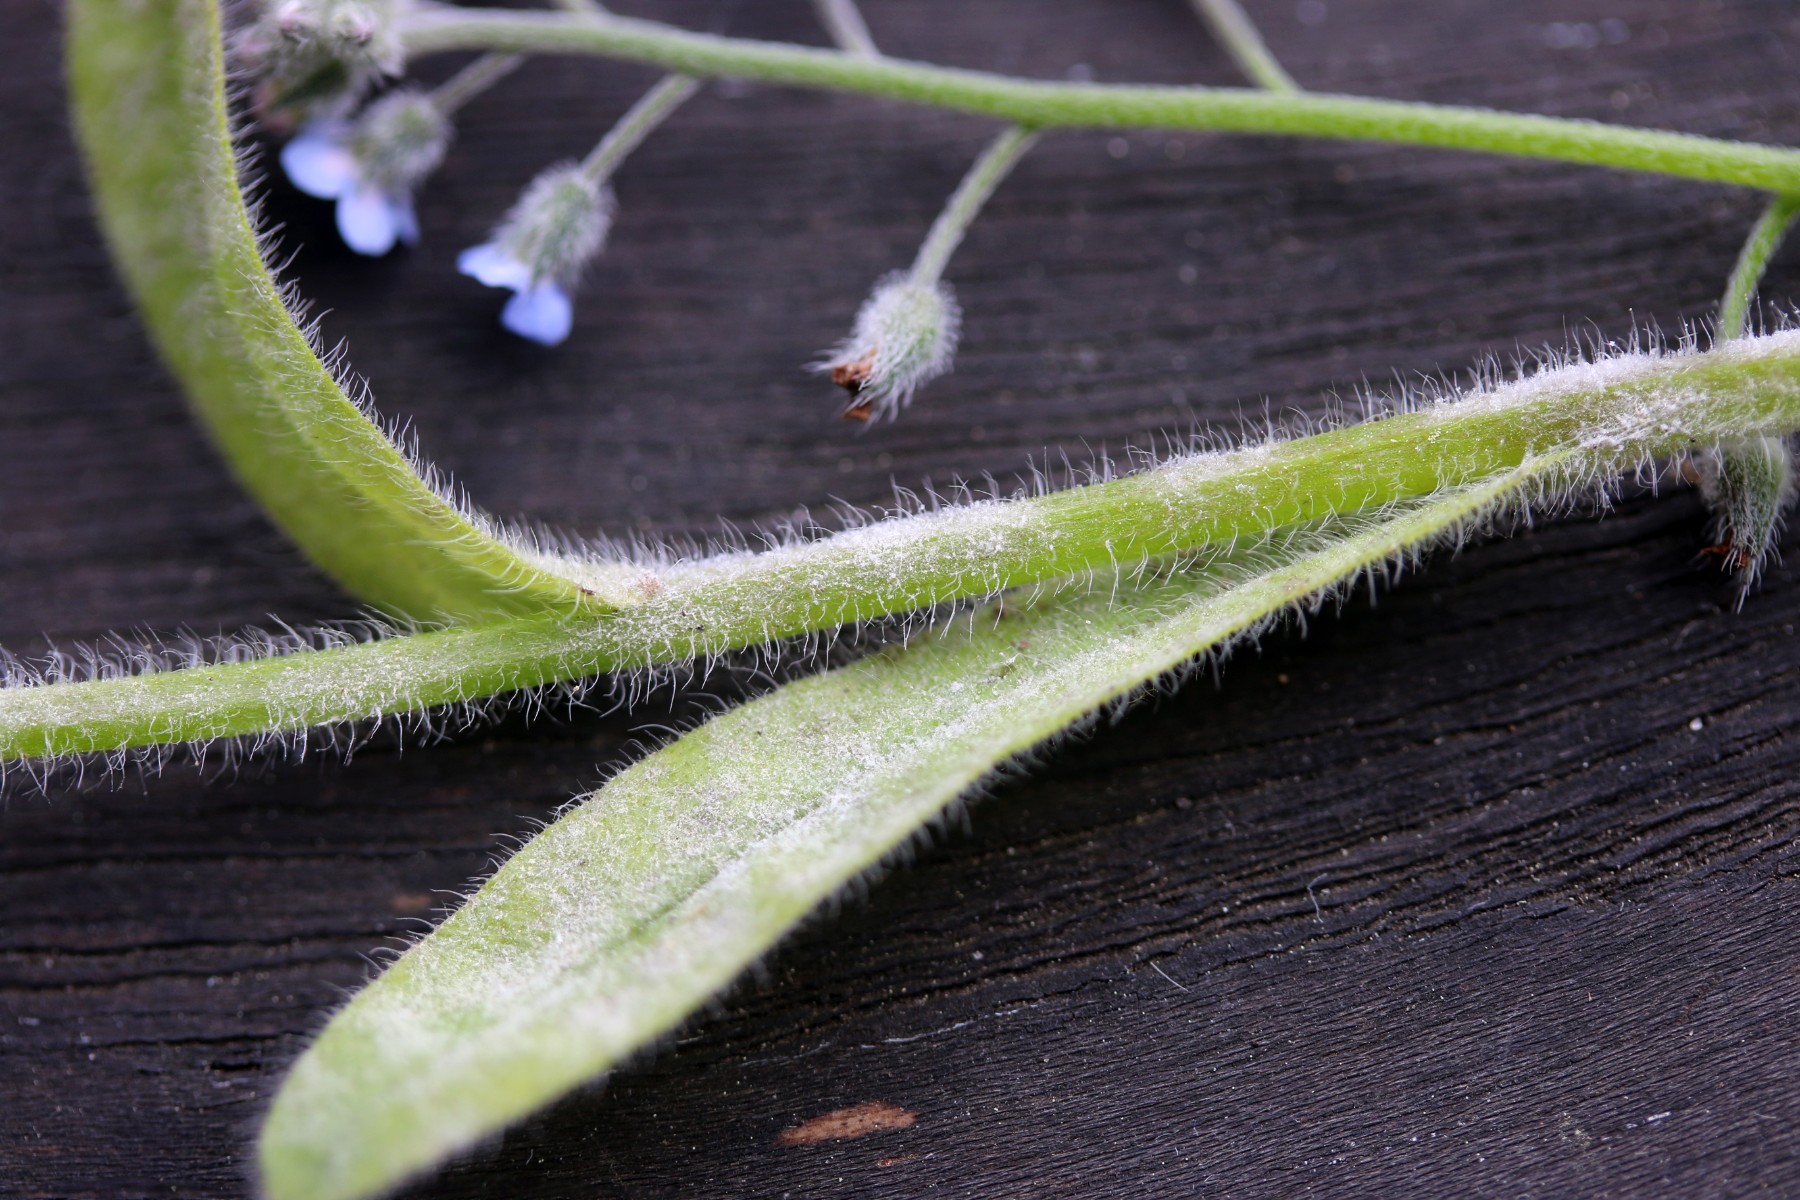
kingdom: Fungi
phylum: Ascomycota
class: Leotiomycetes
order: Helotiales
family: Erysiphaceae
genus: Golovinomyces
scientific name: Golovinomyces asperifolii
